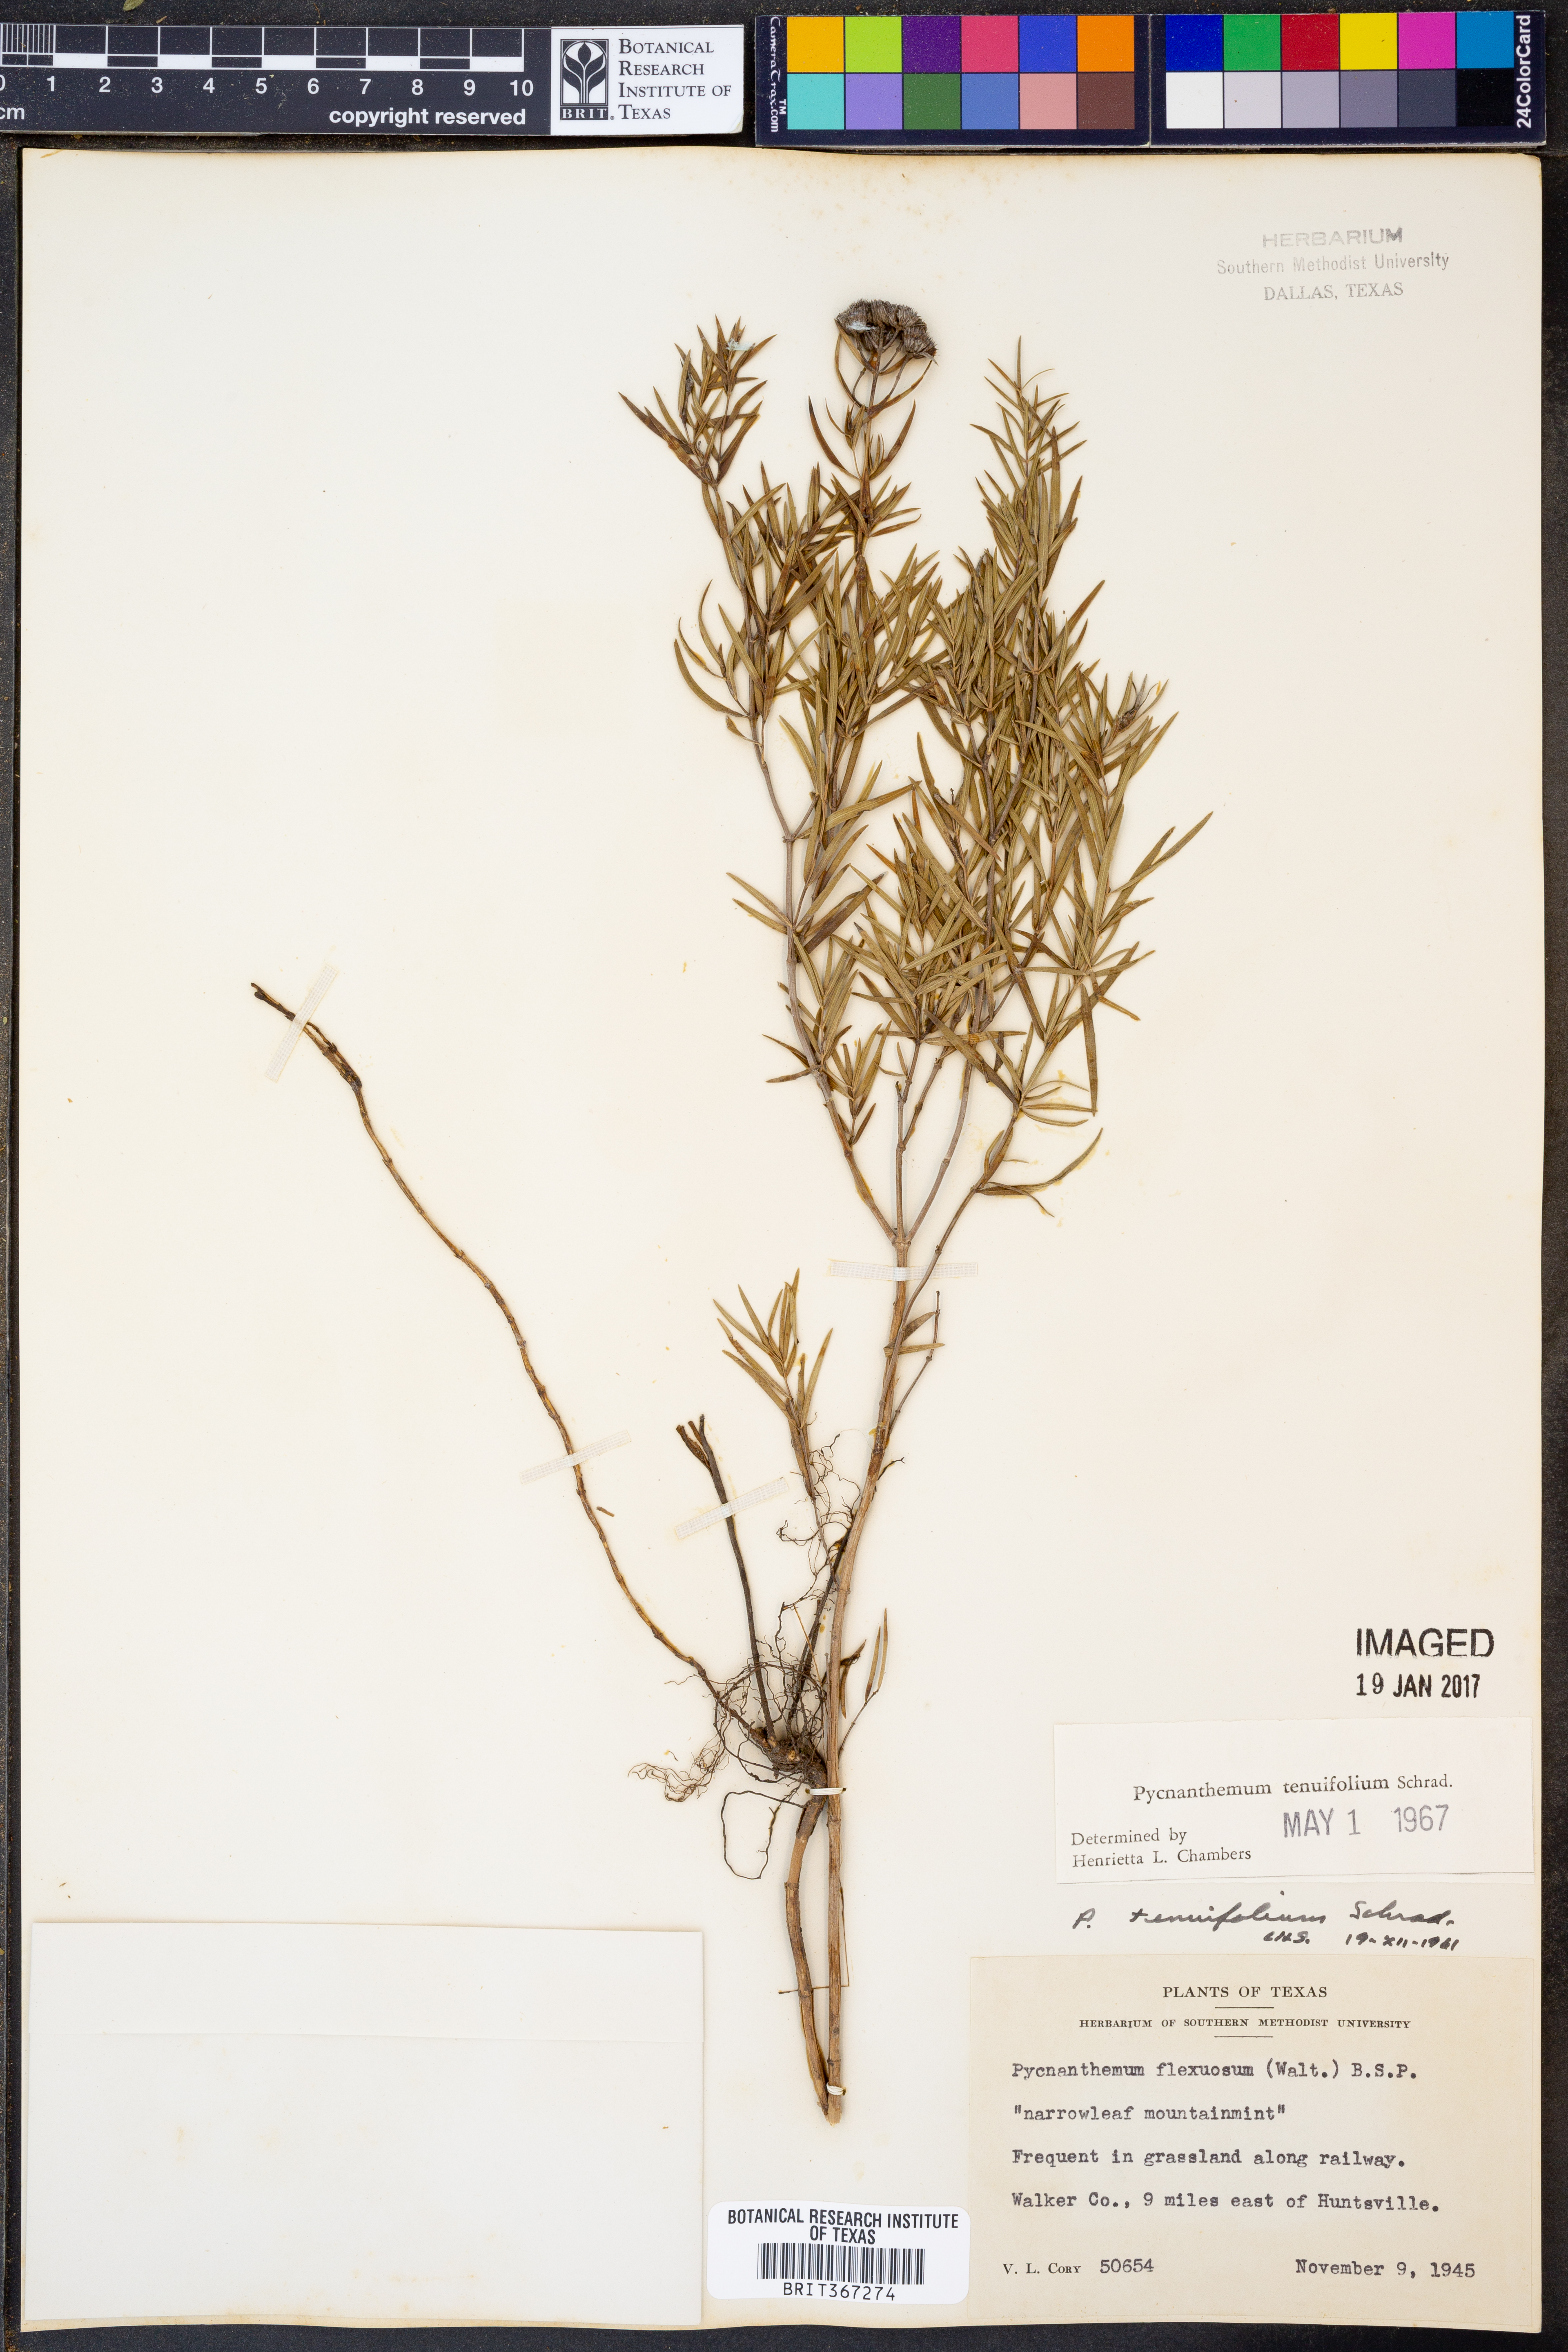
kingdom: Plantae
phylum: Tracheophyta
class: Magnoliopsida
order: Lamiales
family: Lamiaceae
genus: Pycnanthemum
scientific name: Pycnanthemum tenuifolium
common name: Narrow-leaf mountain-mint
